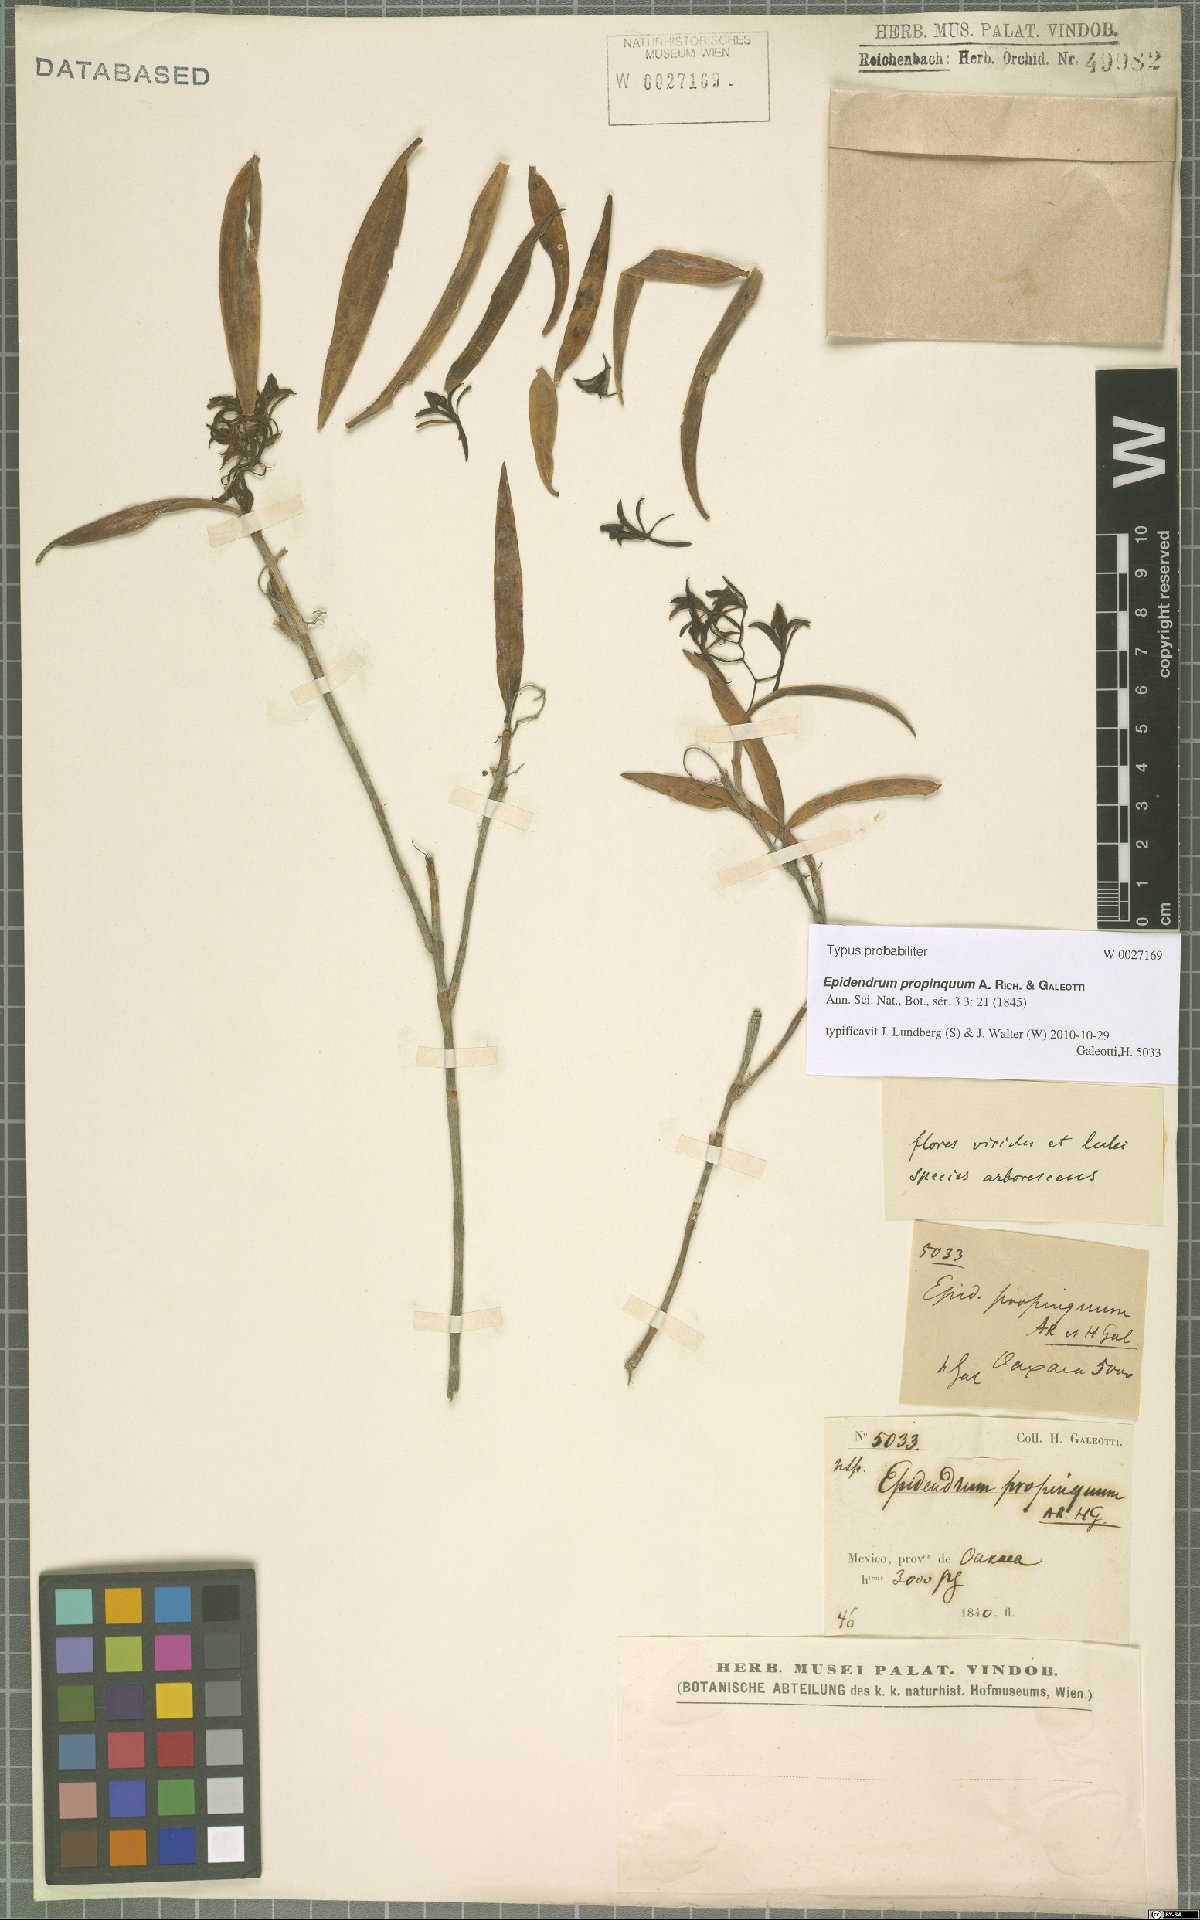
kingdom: Plantae
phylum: Tracheophyta
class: Liliopsida
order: Asparagales
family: Orchidaceae
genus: Epidendrum
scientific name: Epidendrum propinquum
